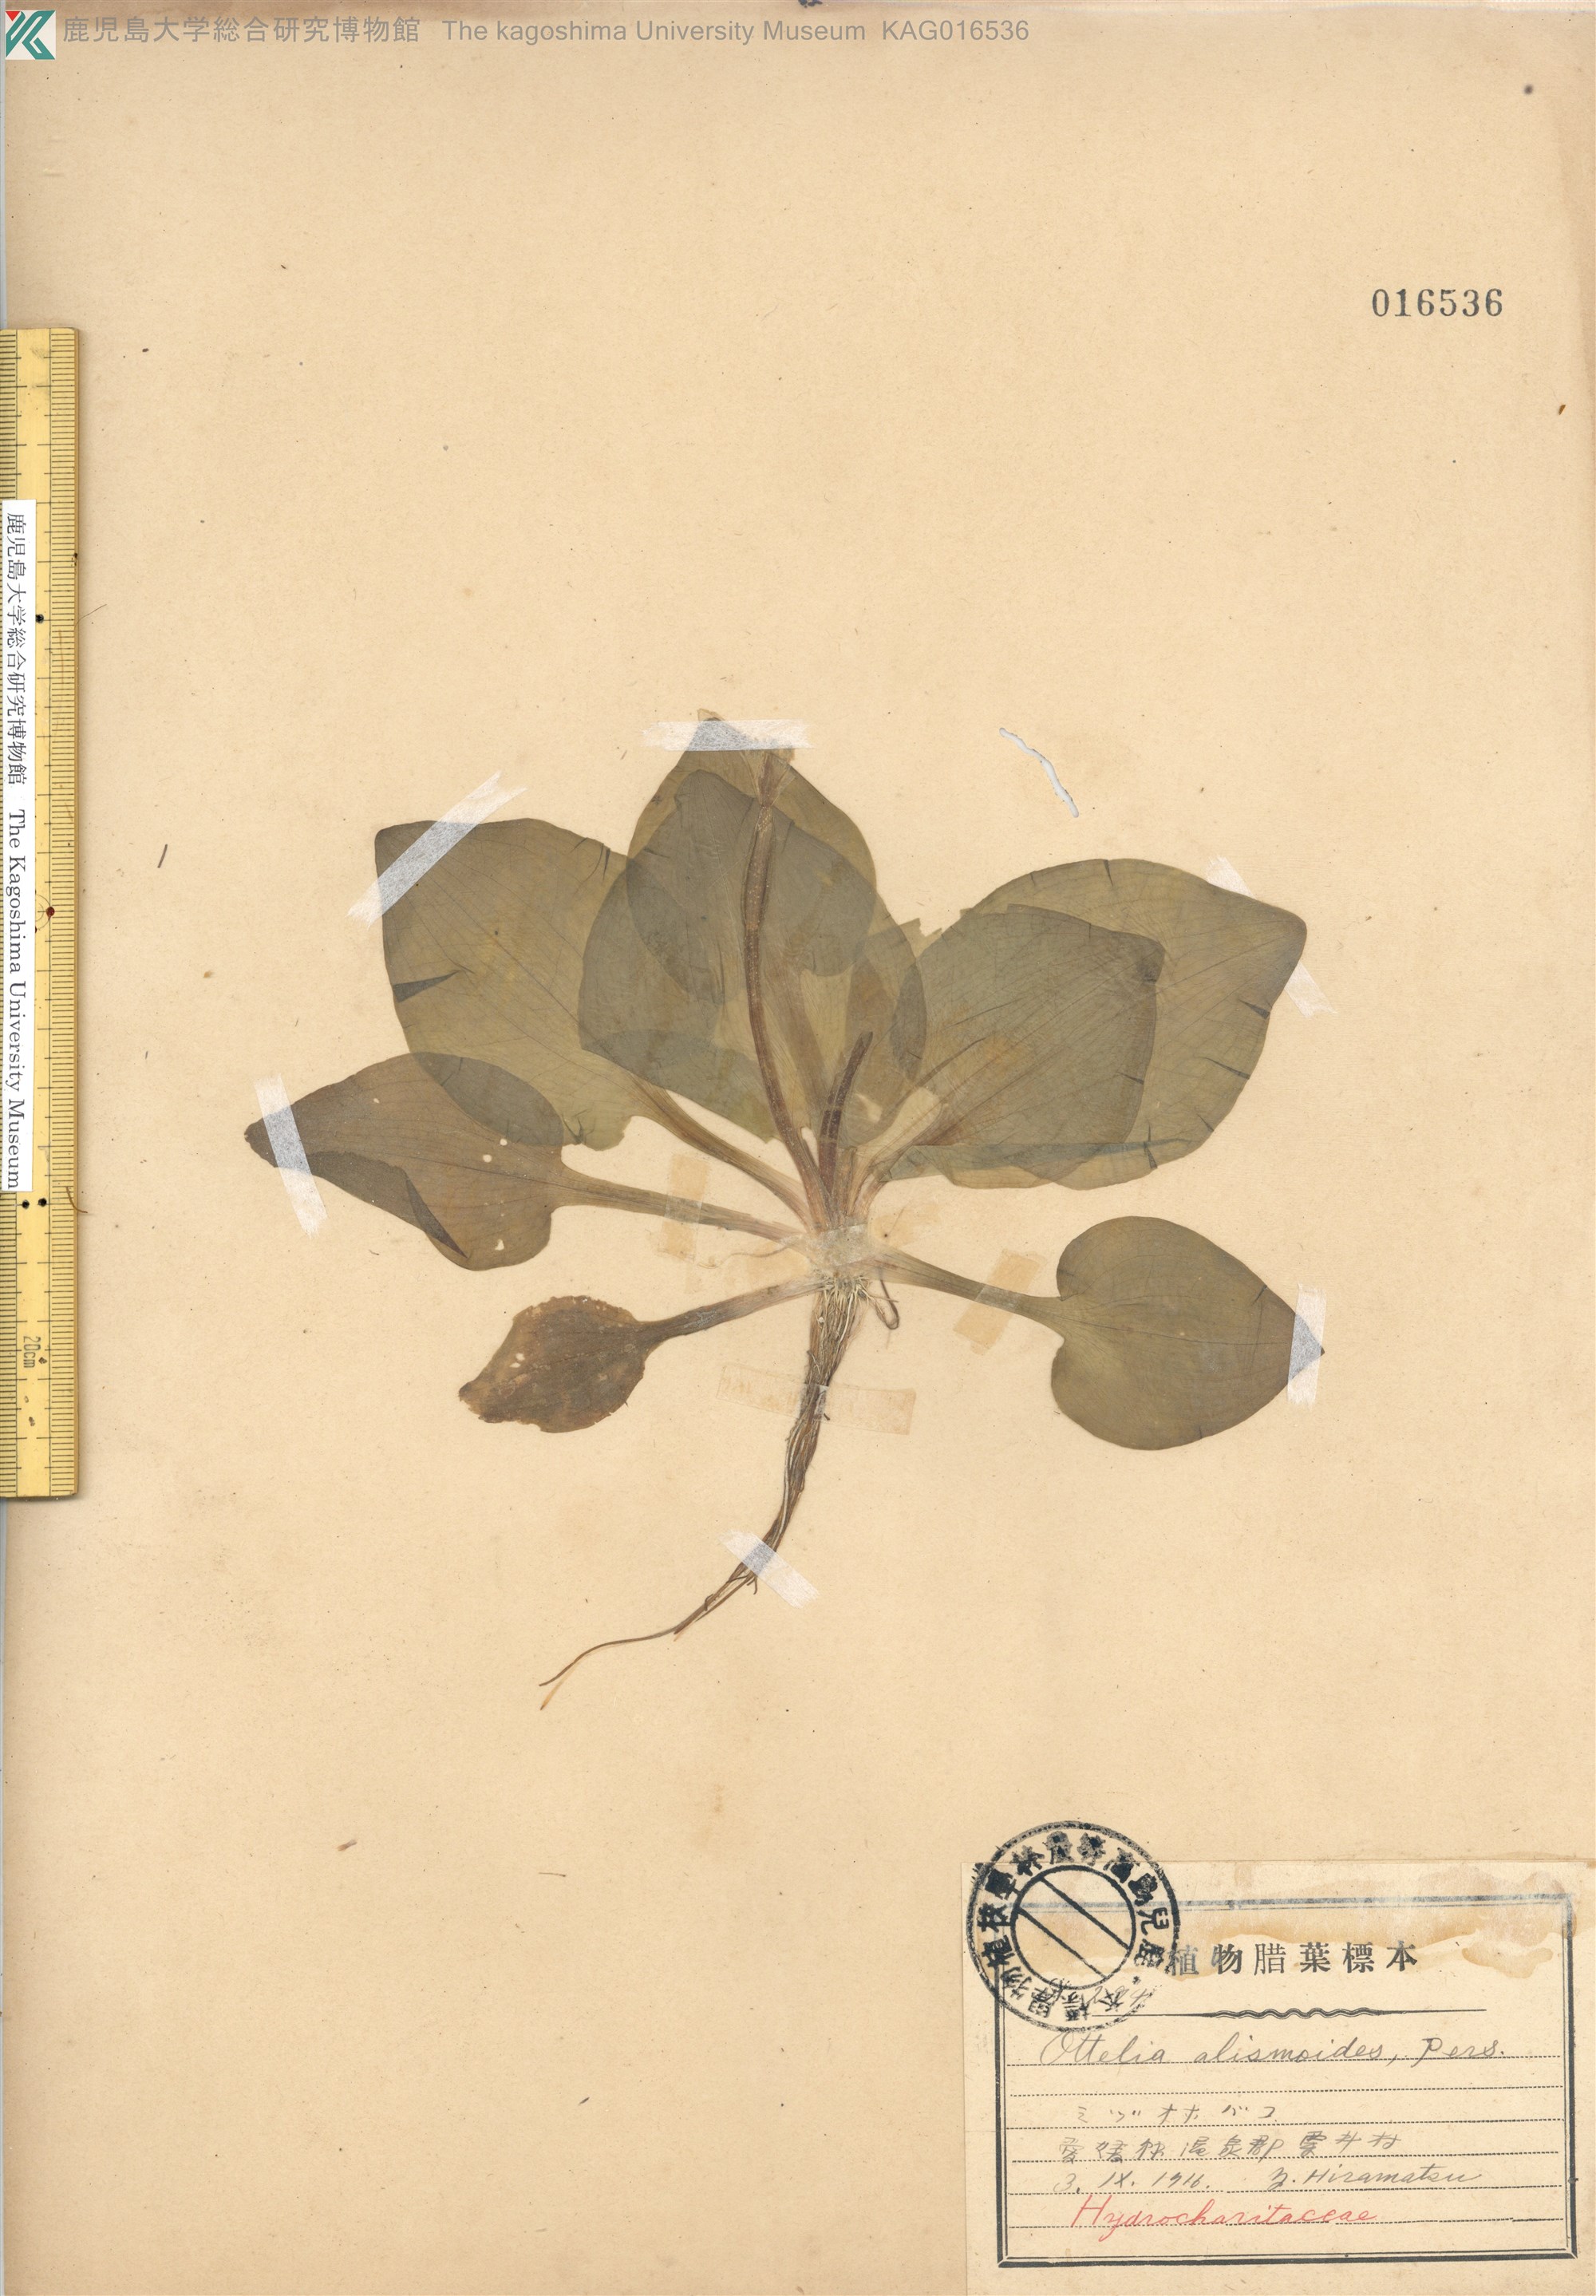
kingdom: Plantae
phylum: Tracheophyta
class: Liliopsida
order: Alismatales
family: Hydrocharitaceae
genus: Ottelia
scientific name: Ottelia alismoides
